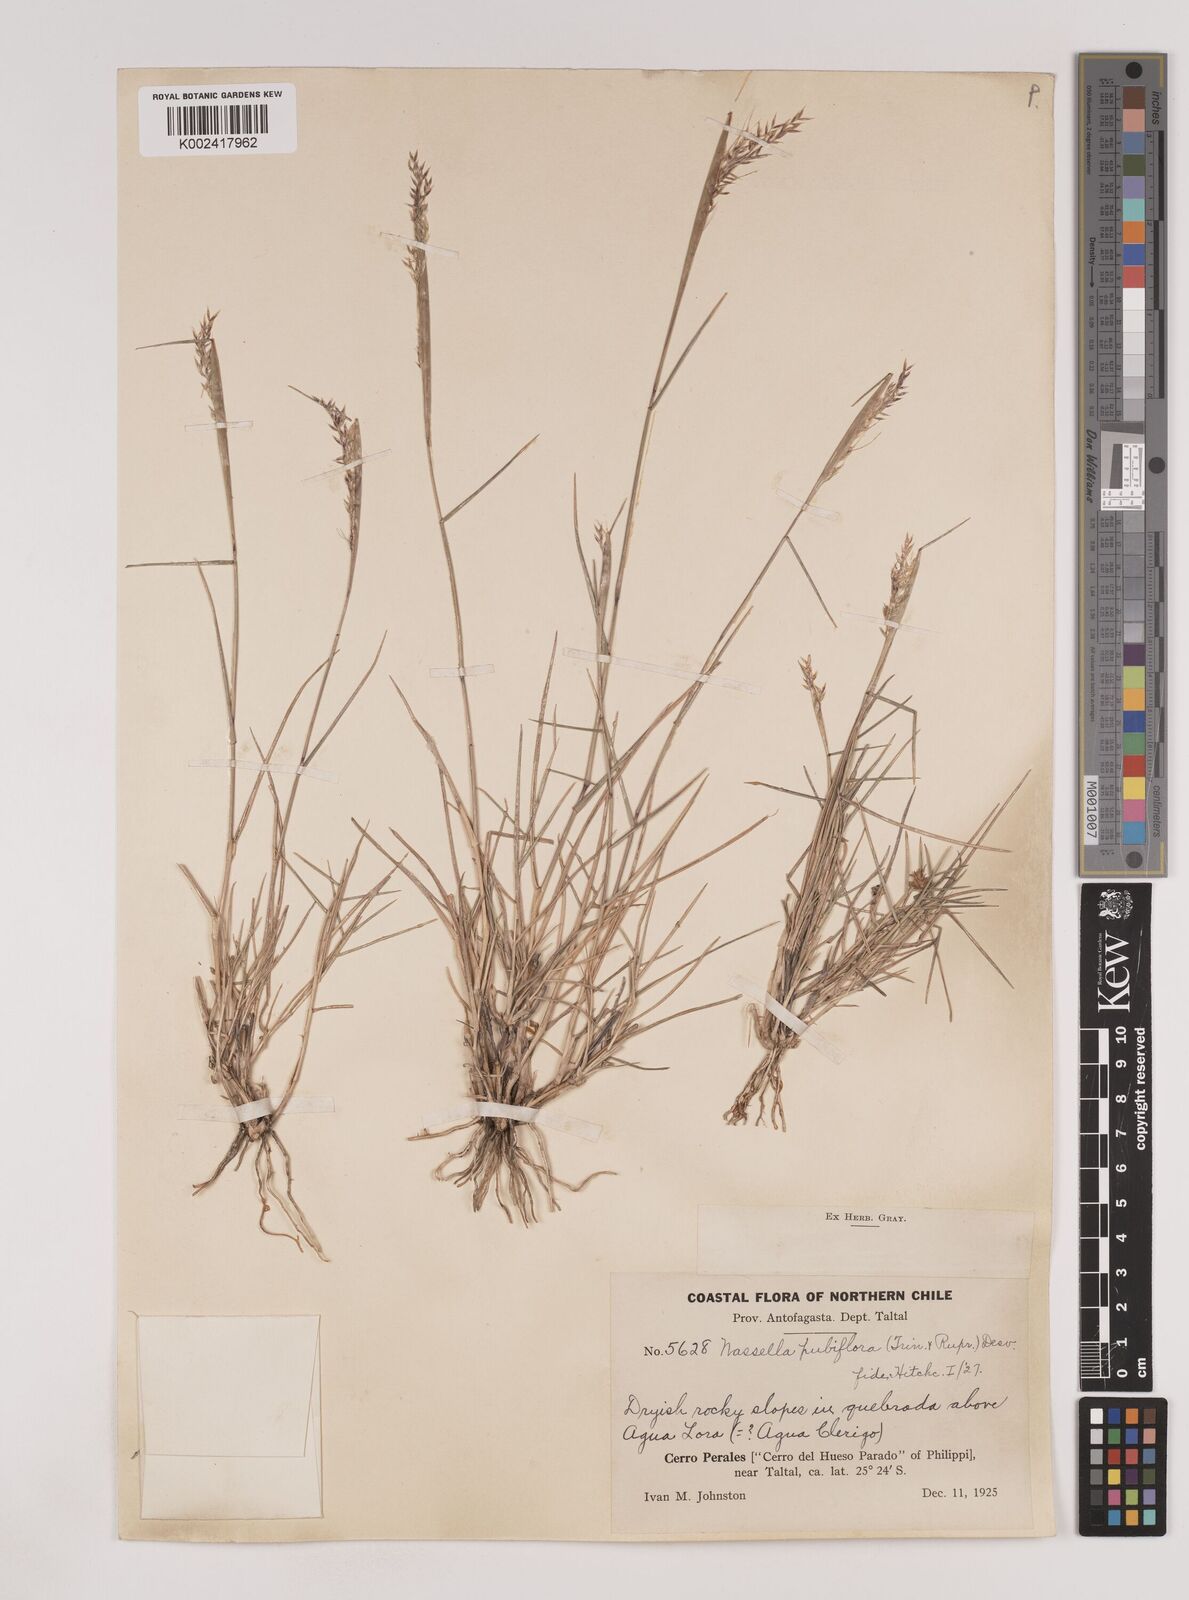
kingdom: Plantae
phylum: Tracheophyta
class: Liliopsida
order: Poales
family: Poaceae
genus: Nassella
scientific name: Nassella pubiflora
